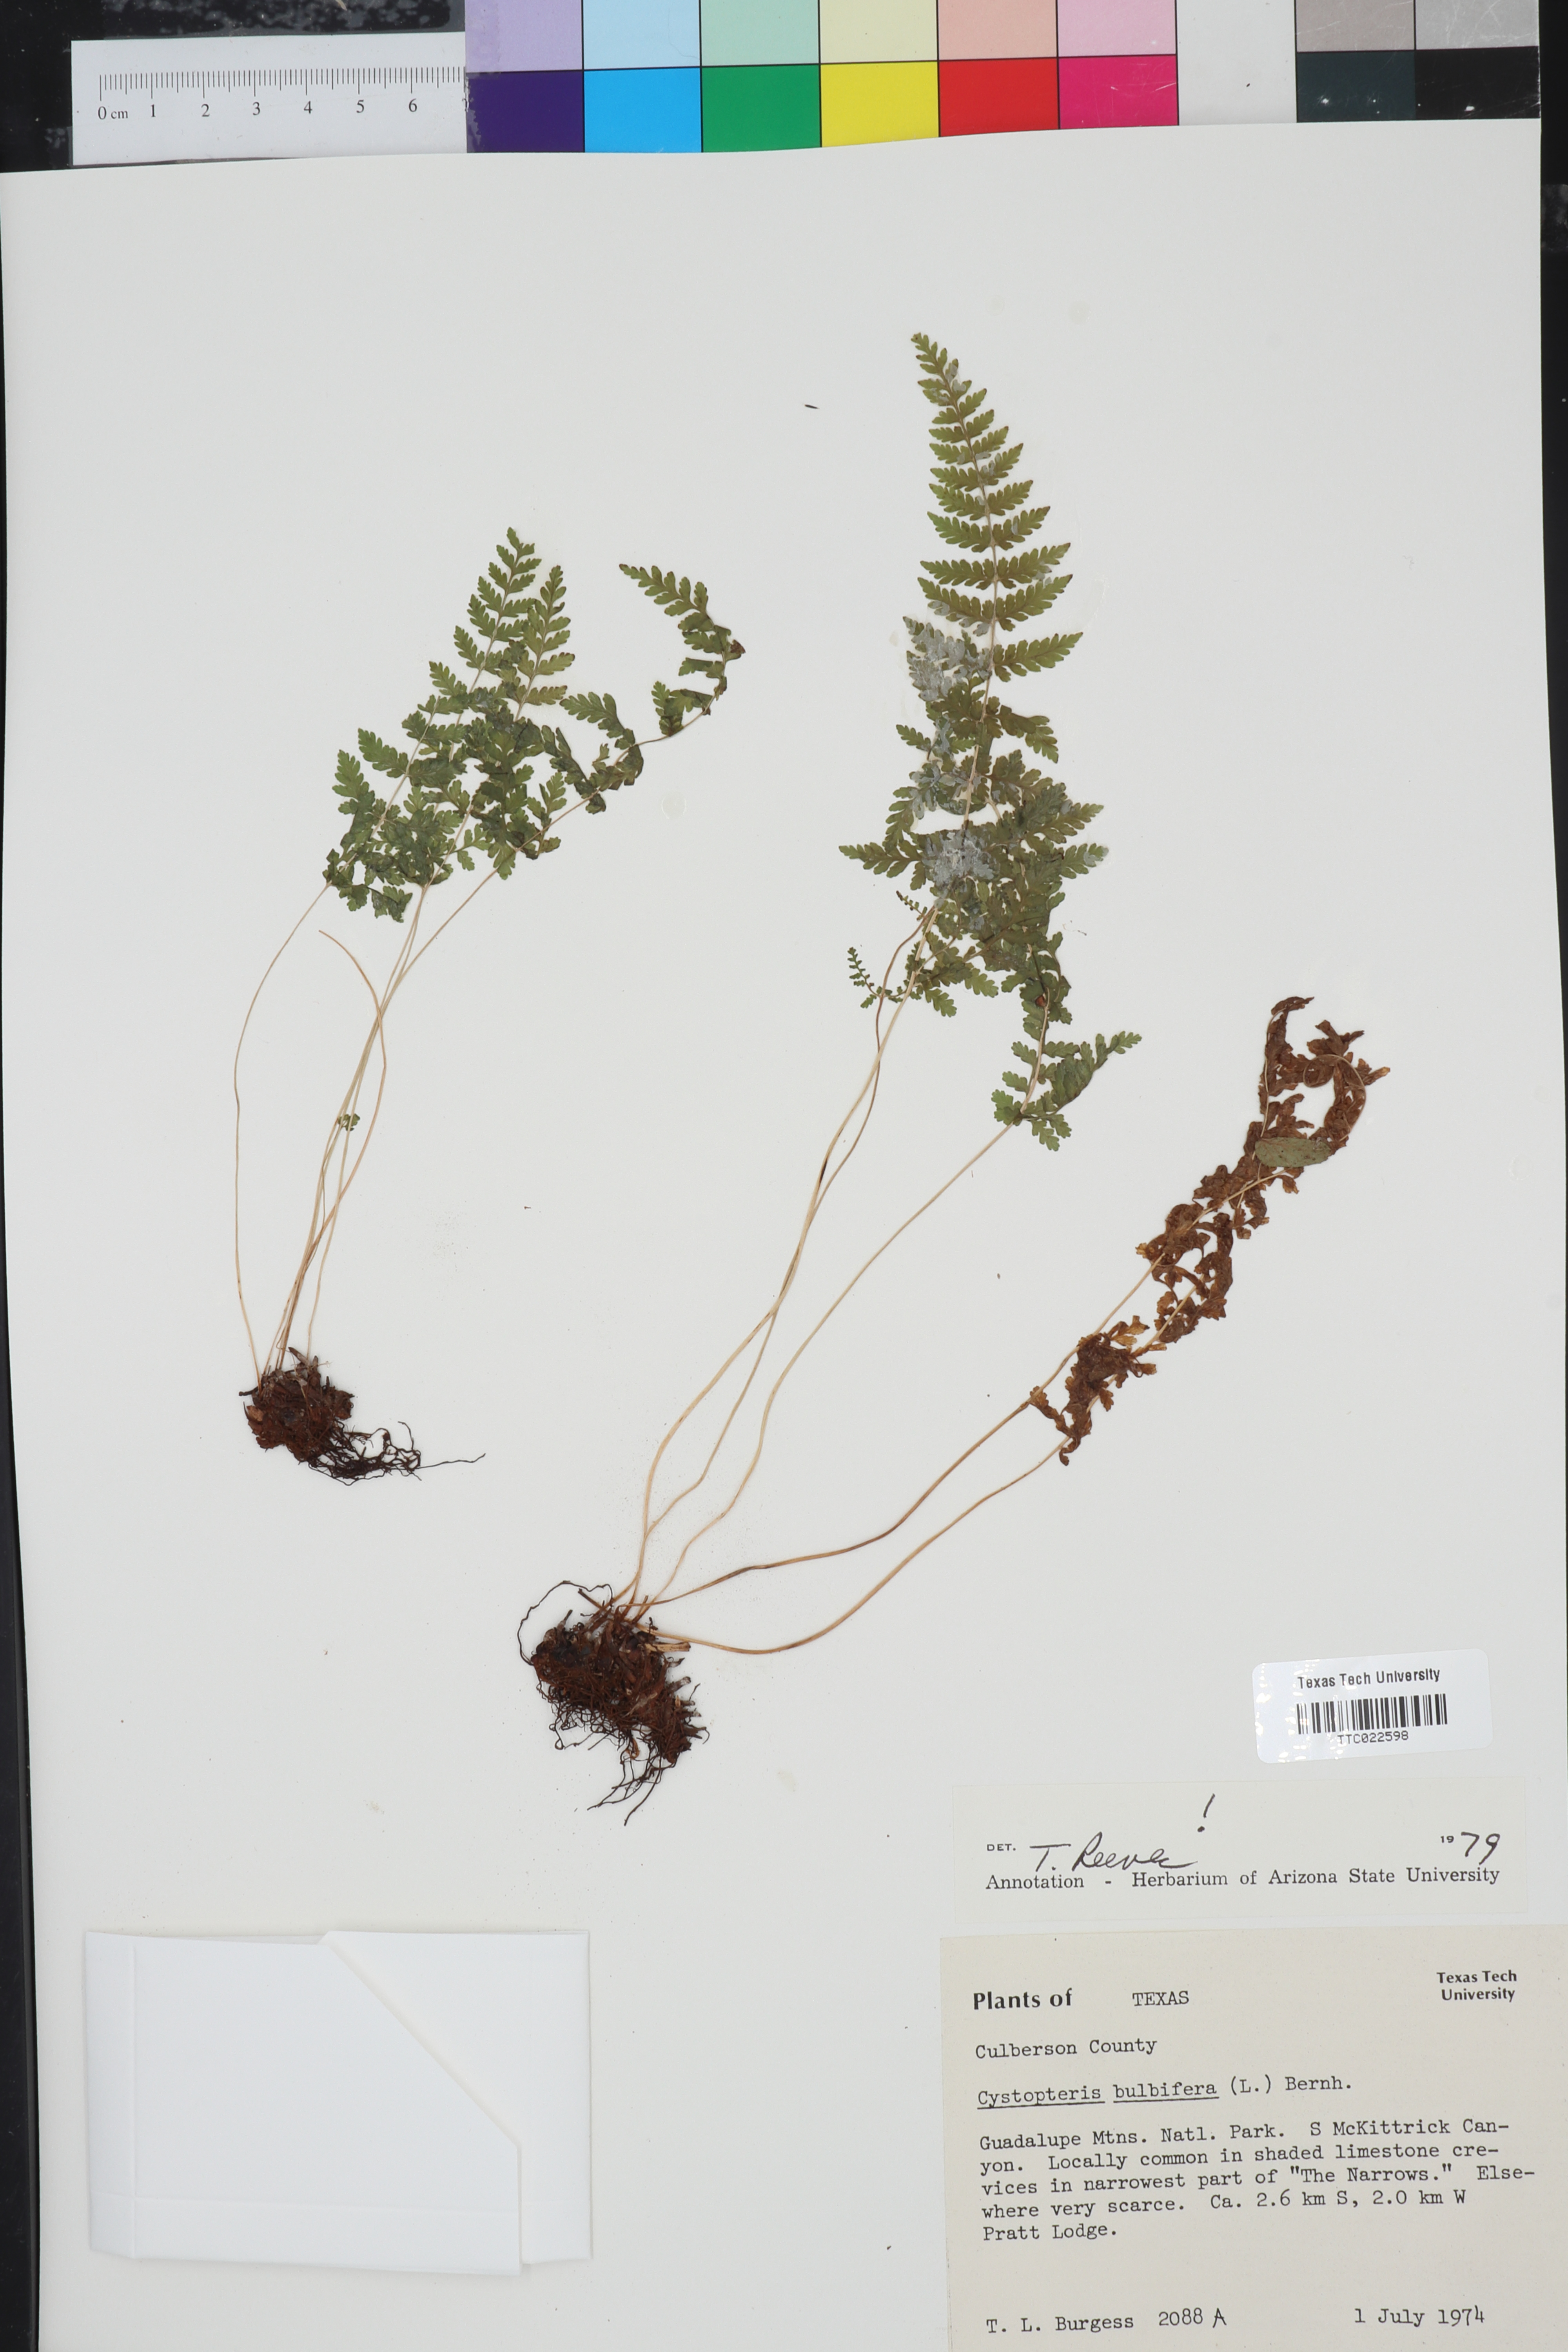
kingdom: Plantae
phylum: Tracheophyta
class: Polypodiopsida
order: Polypodiales
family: Cystopteridaceae
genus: Cystopteris
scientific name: Cystopteris bulbifera
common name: Bulblet bladder fern
